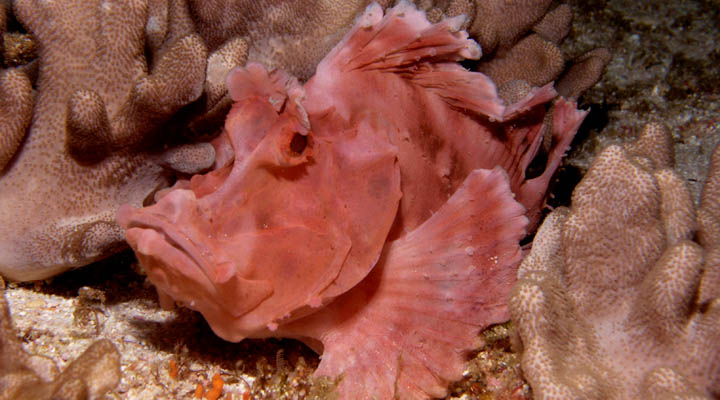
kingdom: Animalia
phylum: Chordata
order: Scorpaeniformes
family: Scorpaenidae
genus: Rhinopias
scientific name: Rhinopias eschmeyeri
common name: Eschmeyer's scorpionfish
